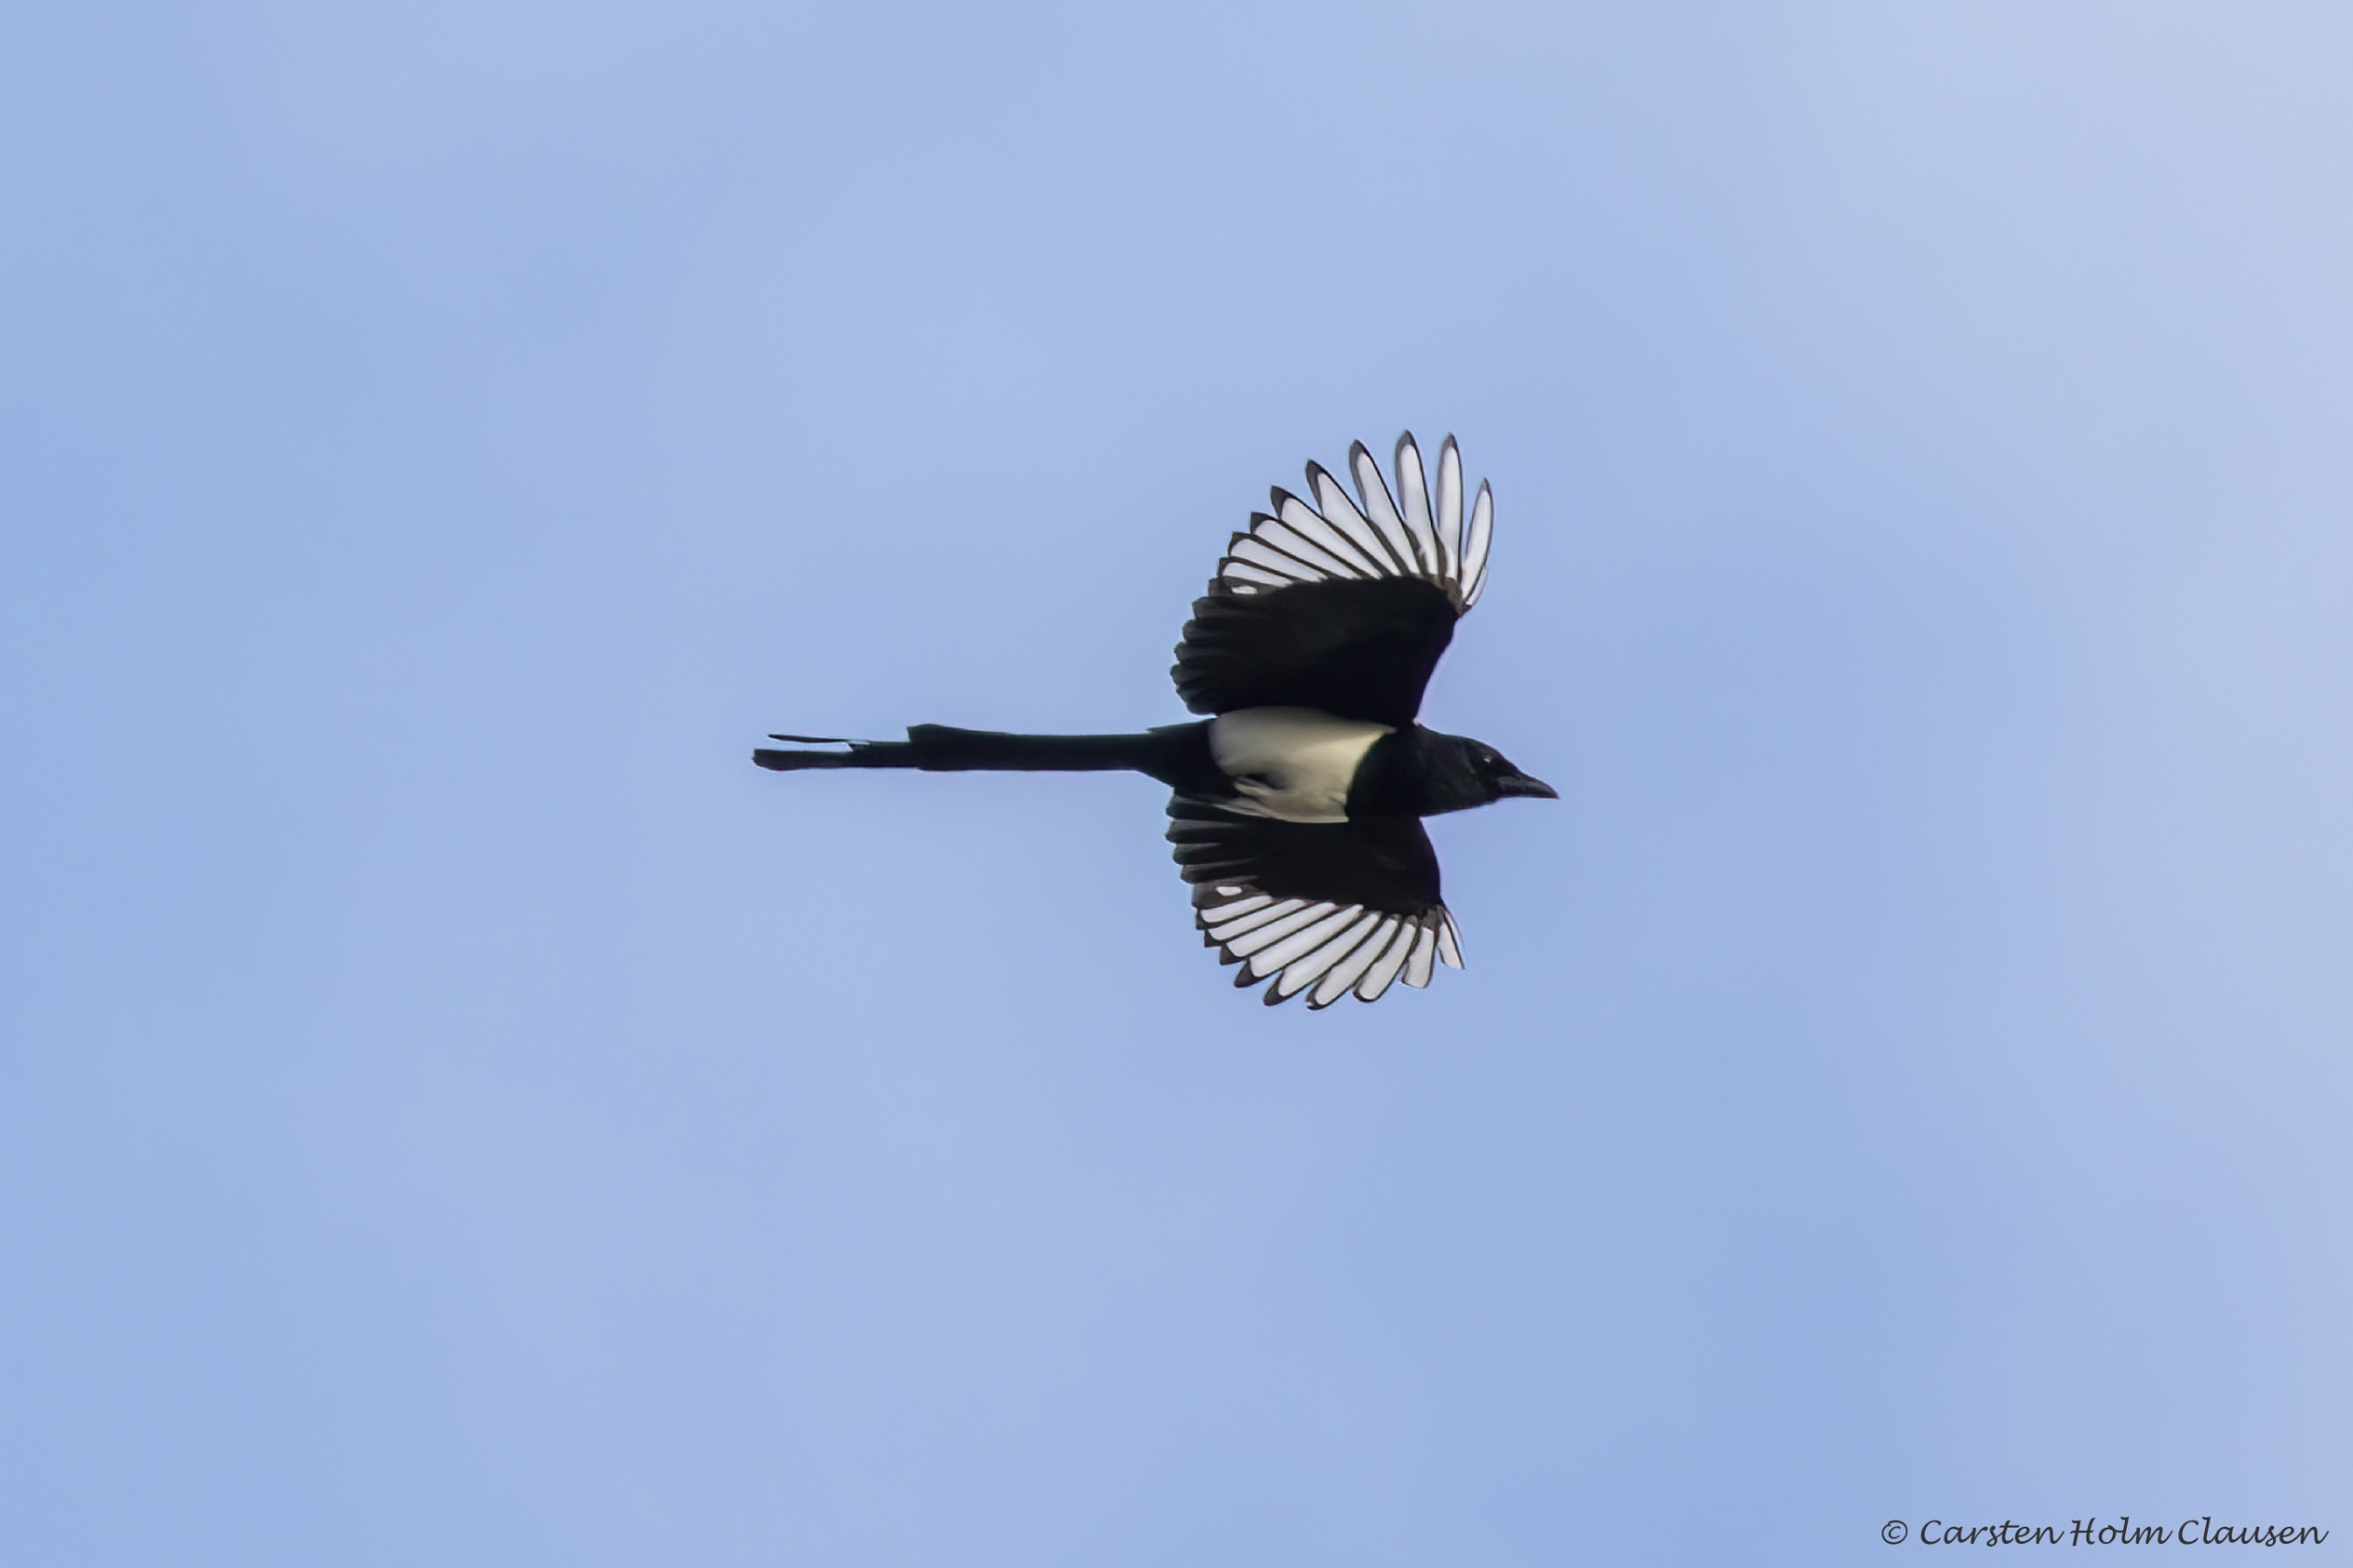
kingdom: Animalia
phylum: Chordata
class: Aves
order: Passeriformes
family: Corvidae
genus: Pica
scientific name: Pica pica
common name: Husskade
